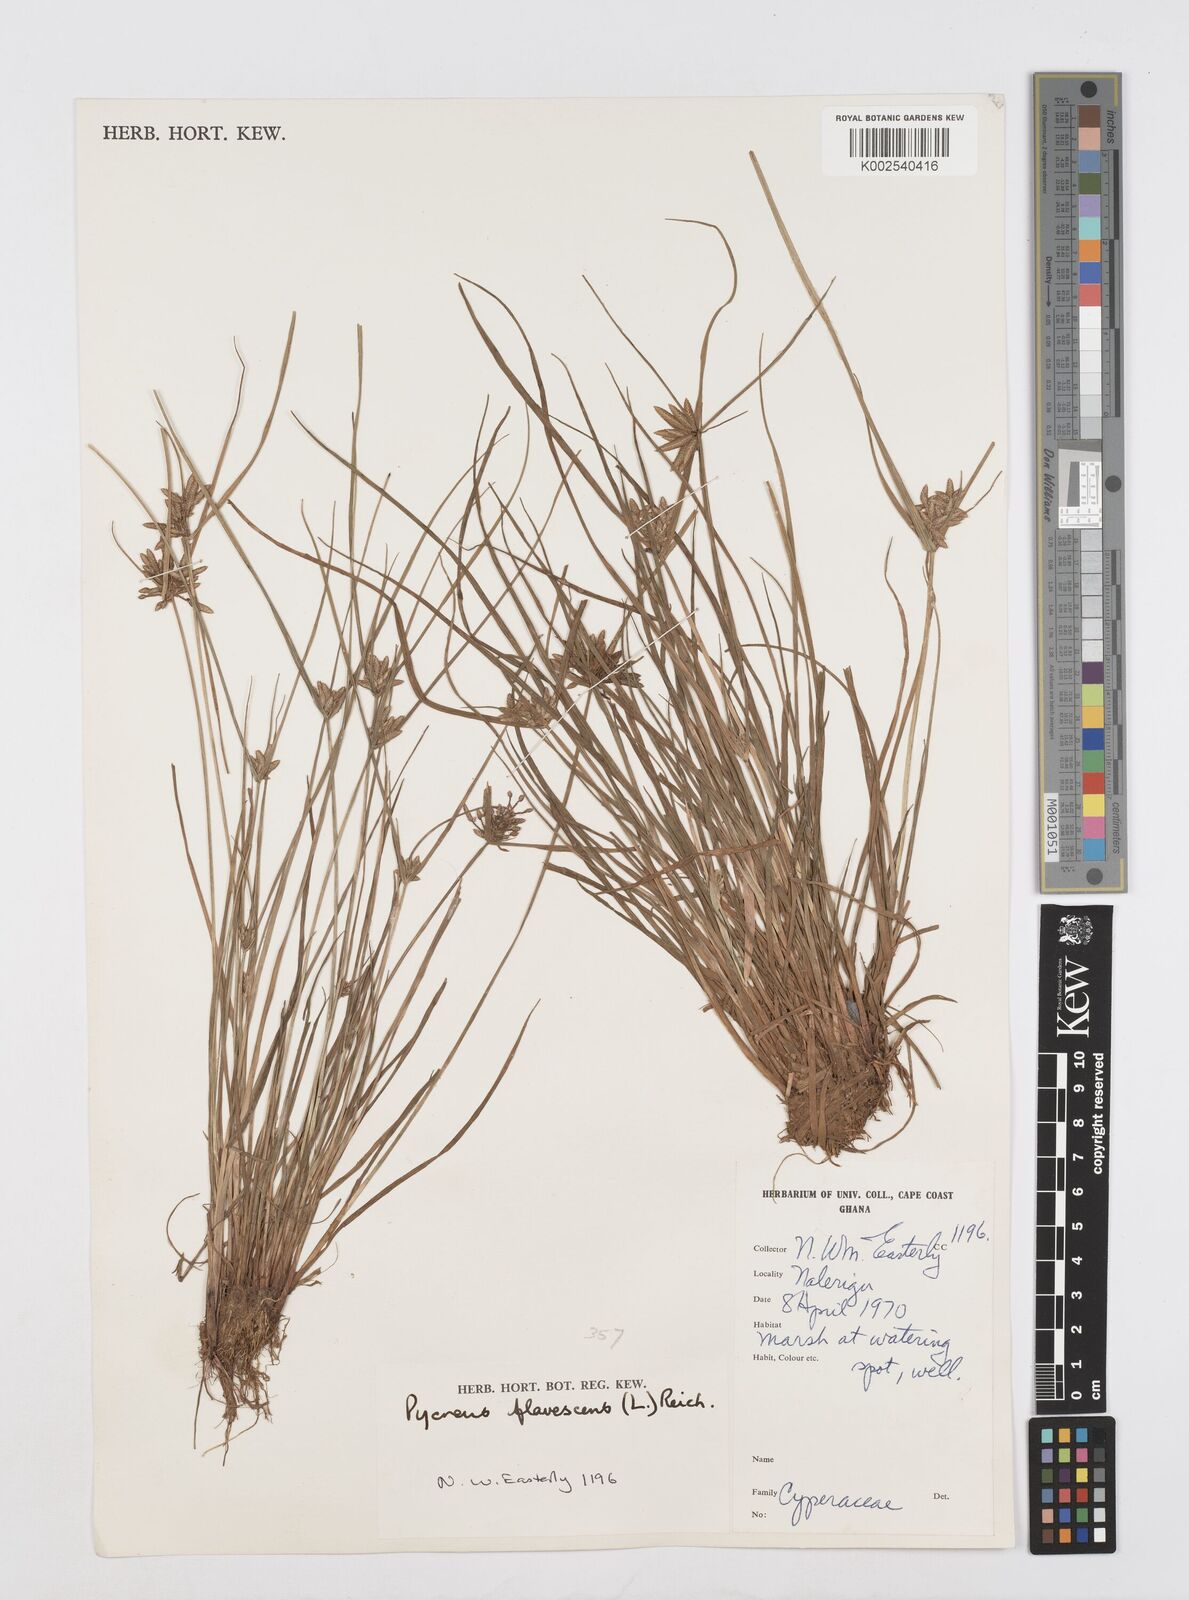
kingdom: Plantae
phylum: Tracheophyta
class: Liliopsida
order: Poales
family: Cyperaceae
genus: Cyperus
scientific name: Cyperus flavescens
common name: Yellow galingale
